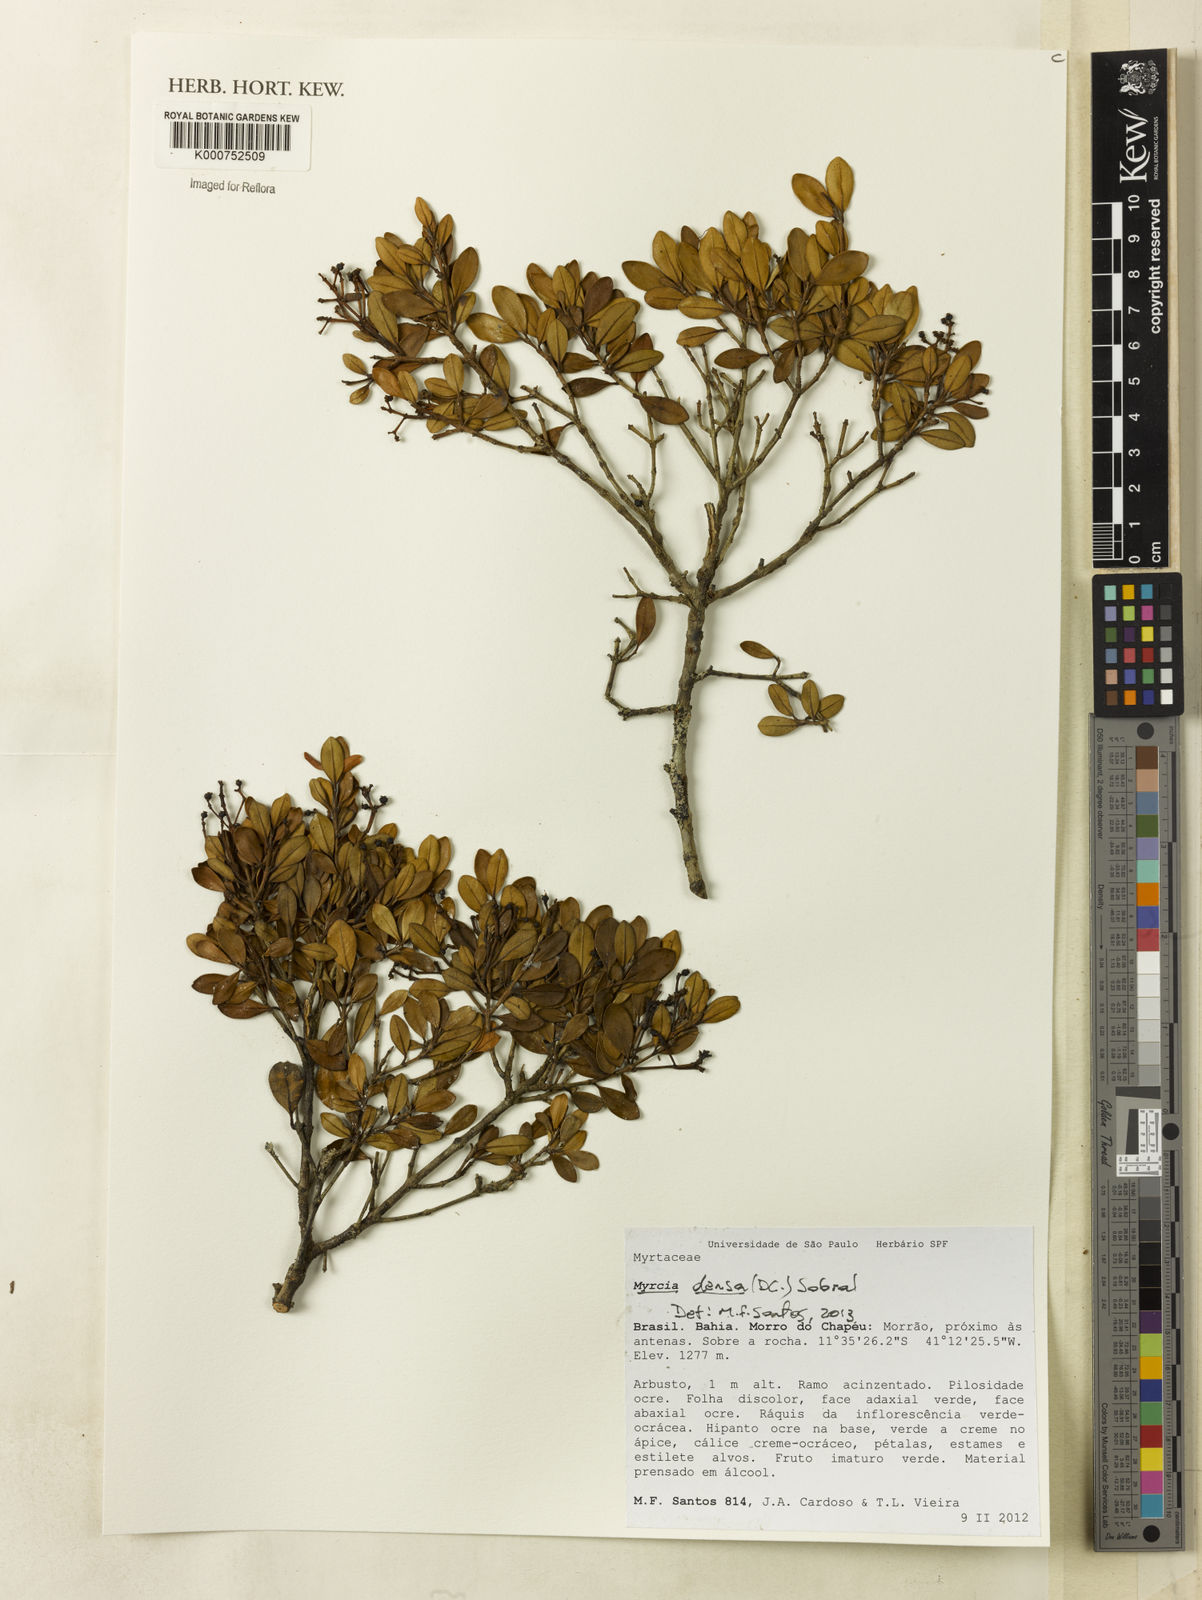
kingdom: Plantae
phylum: Tracheophyta
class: Magnoliopsida
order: Myrtales
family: Myrtaceae
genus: Myrcia
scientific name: Myrcia densa
